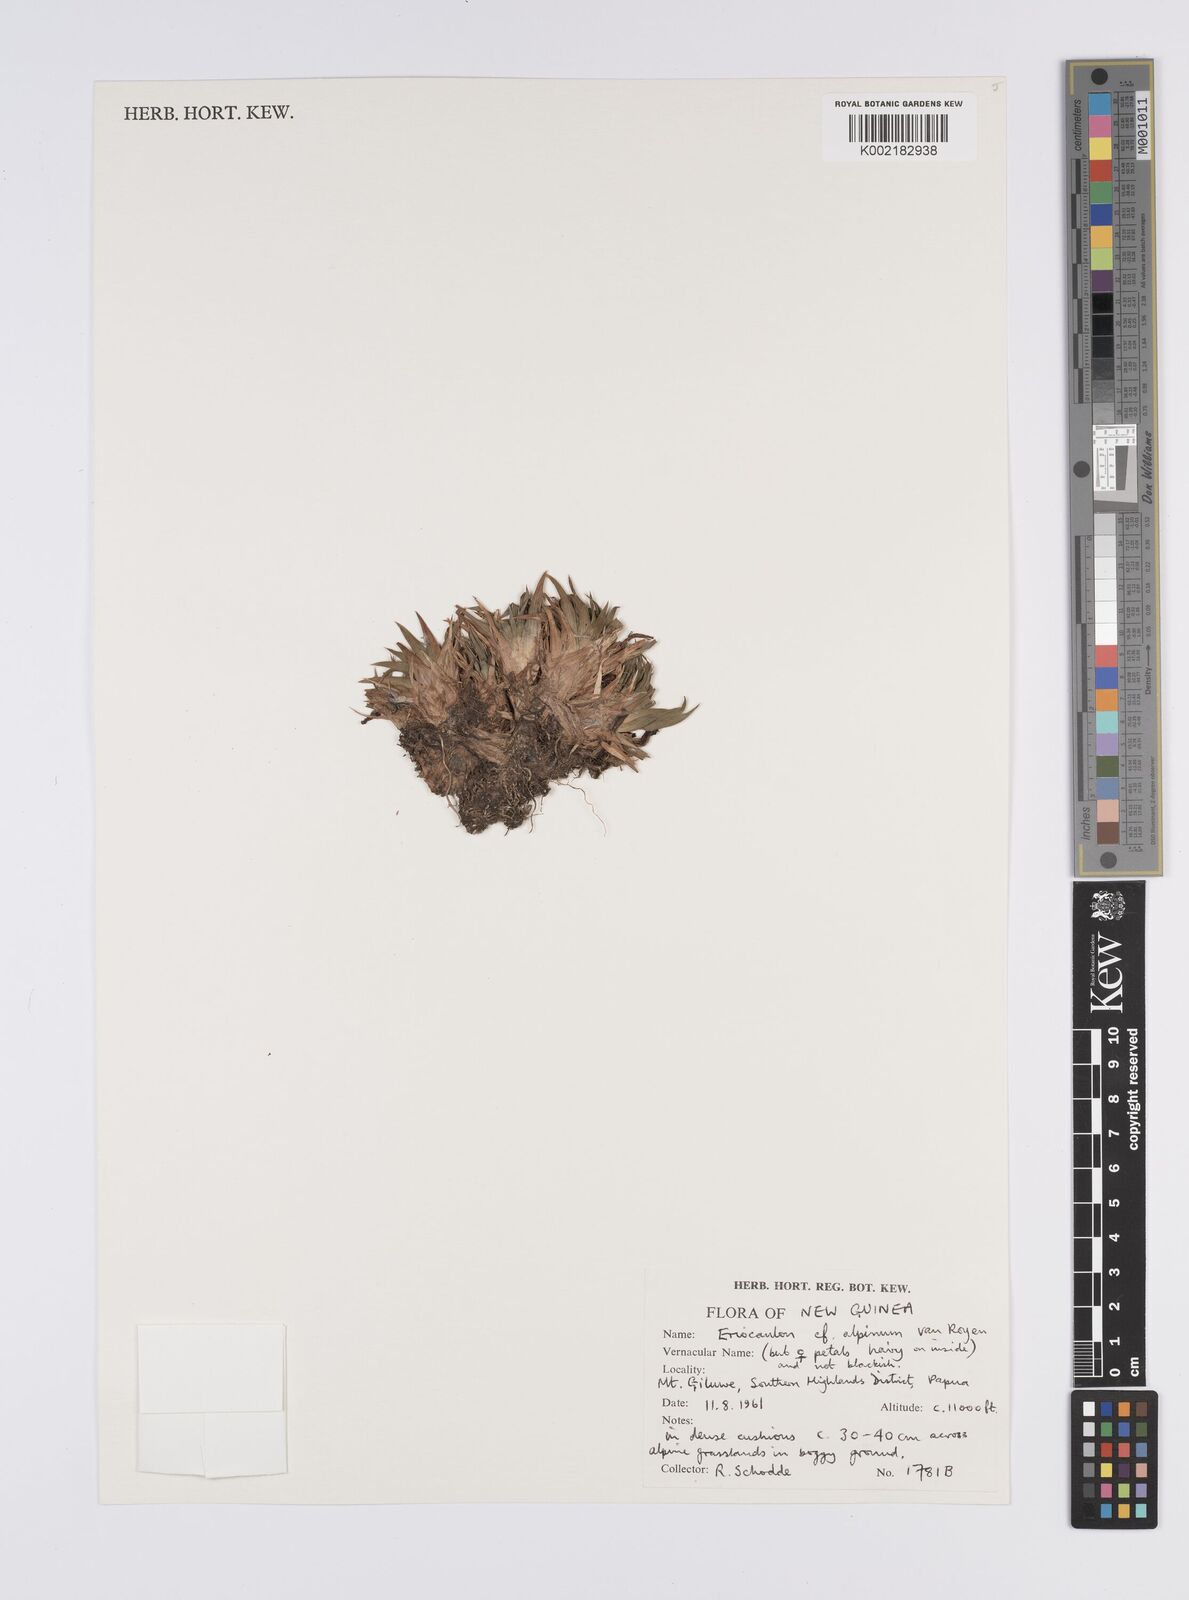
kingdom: Plantae
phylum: Tracheophyta
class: Liliopsida
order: Poales
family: Eriocaulaceae
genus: Eriocaulon
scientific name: Eriocaulon alpinum
